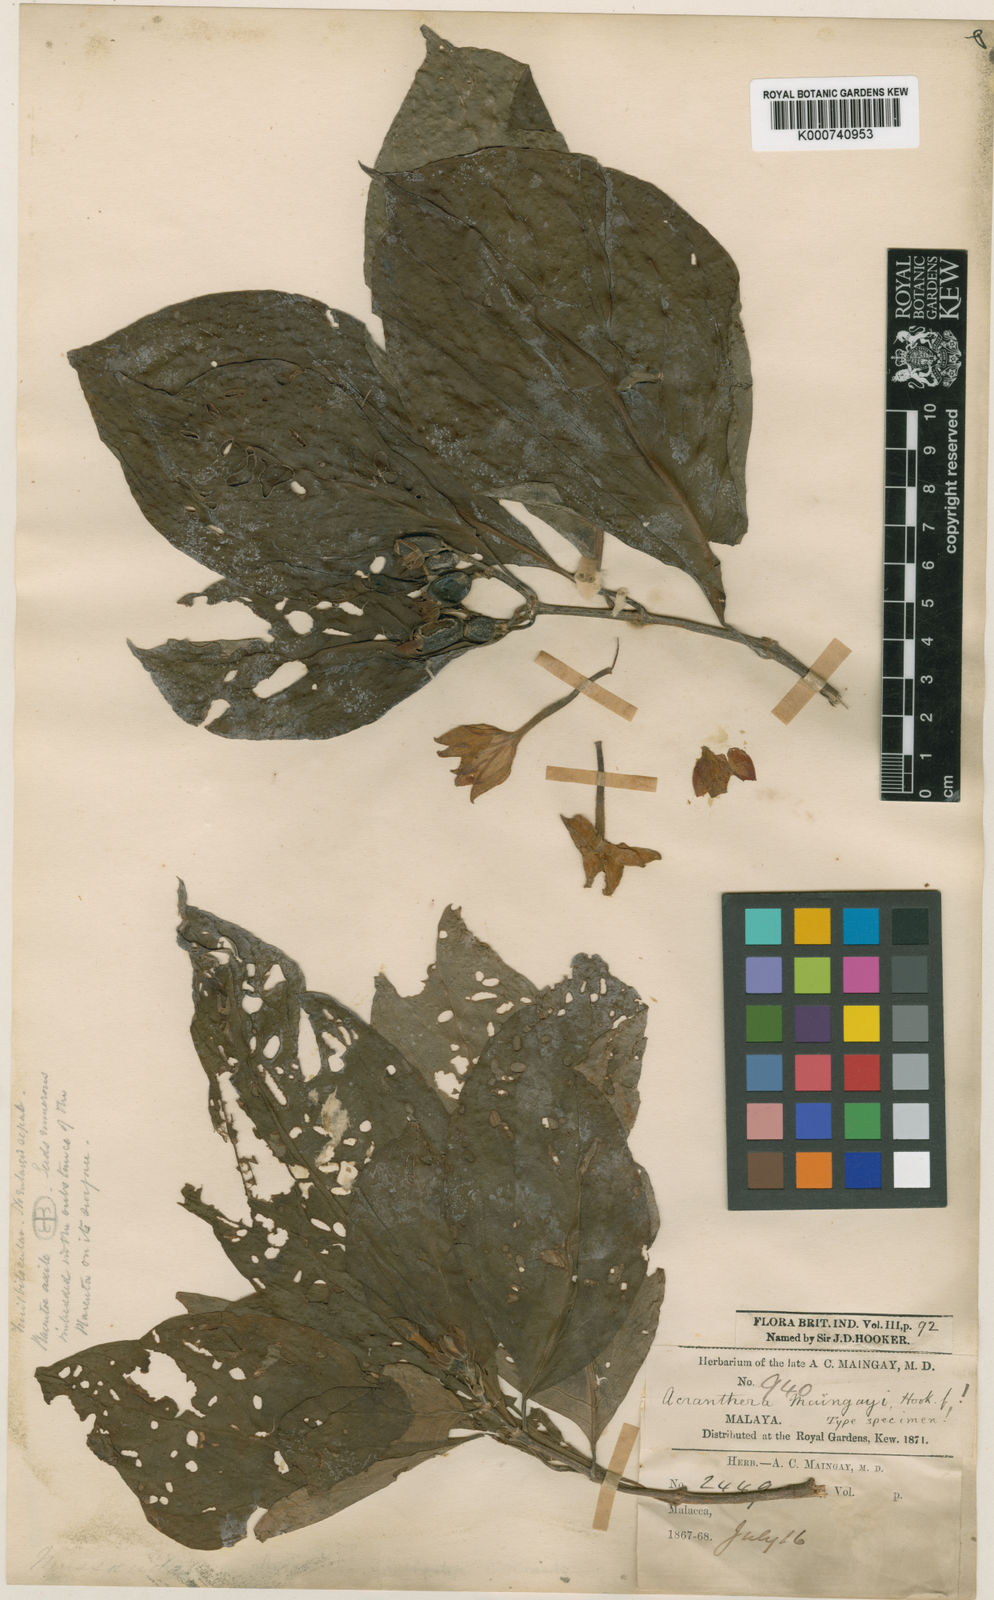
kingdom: Plantae
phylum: Tracheophyta
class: Magnoliopsida
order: Gentianales
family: Rubiaceae
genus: Mussaenda
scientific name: Mussaenda maingayi
